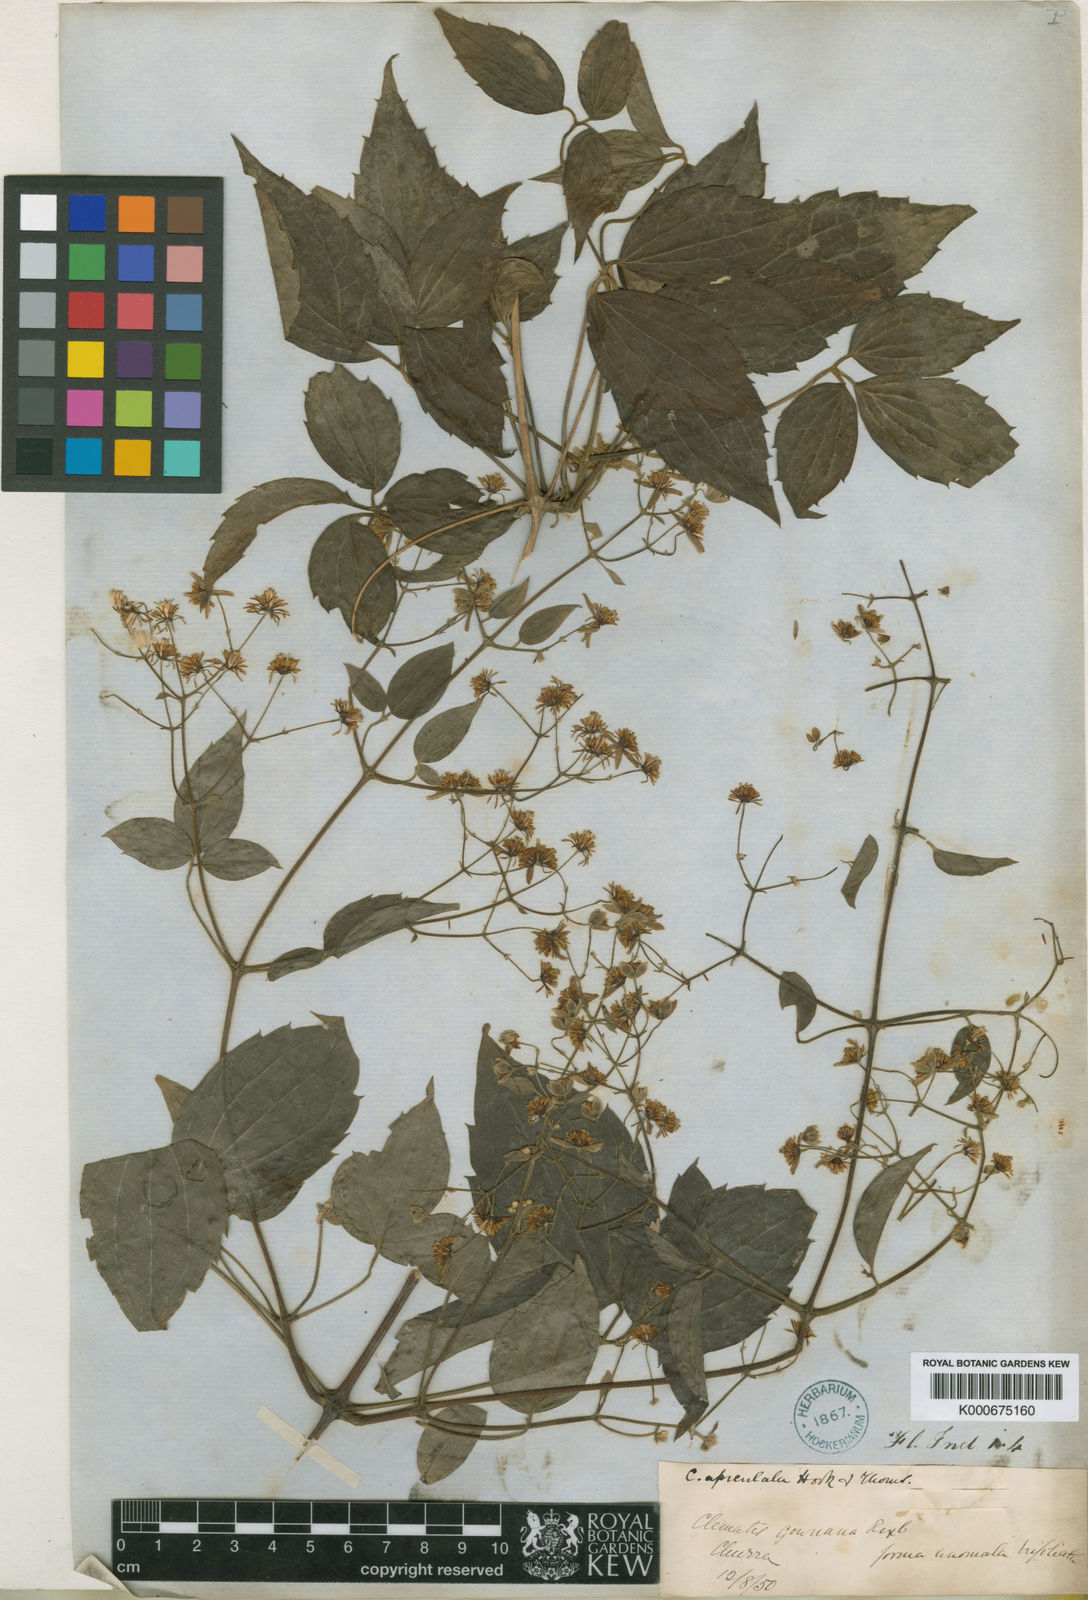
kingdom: Plantae
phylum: Tracheophyta
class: Magnoliopsida
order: Ranunculales
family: Ranunculaceae
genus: Clematis
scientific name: Clematis apiculata
